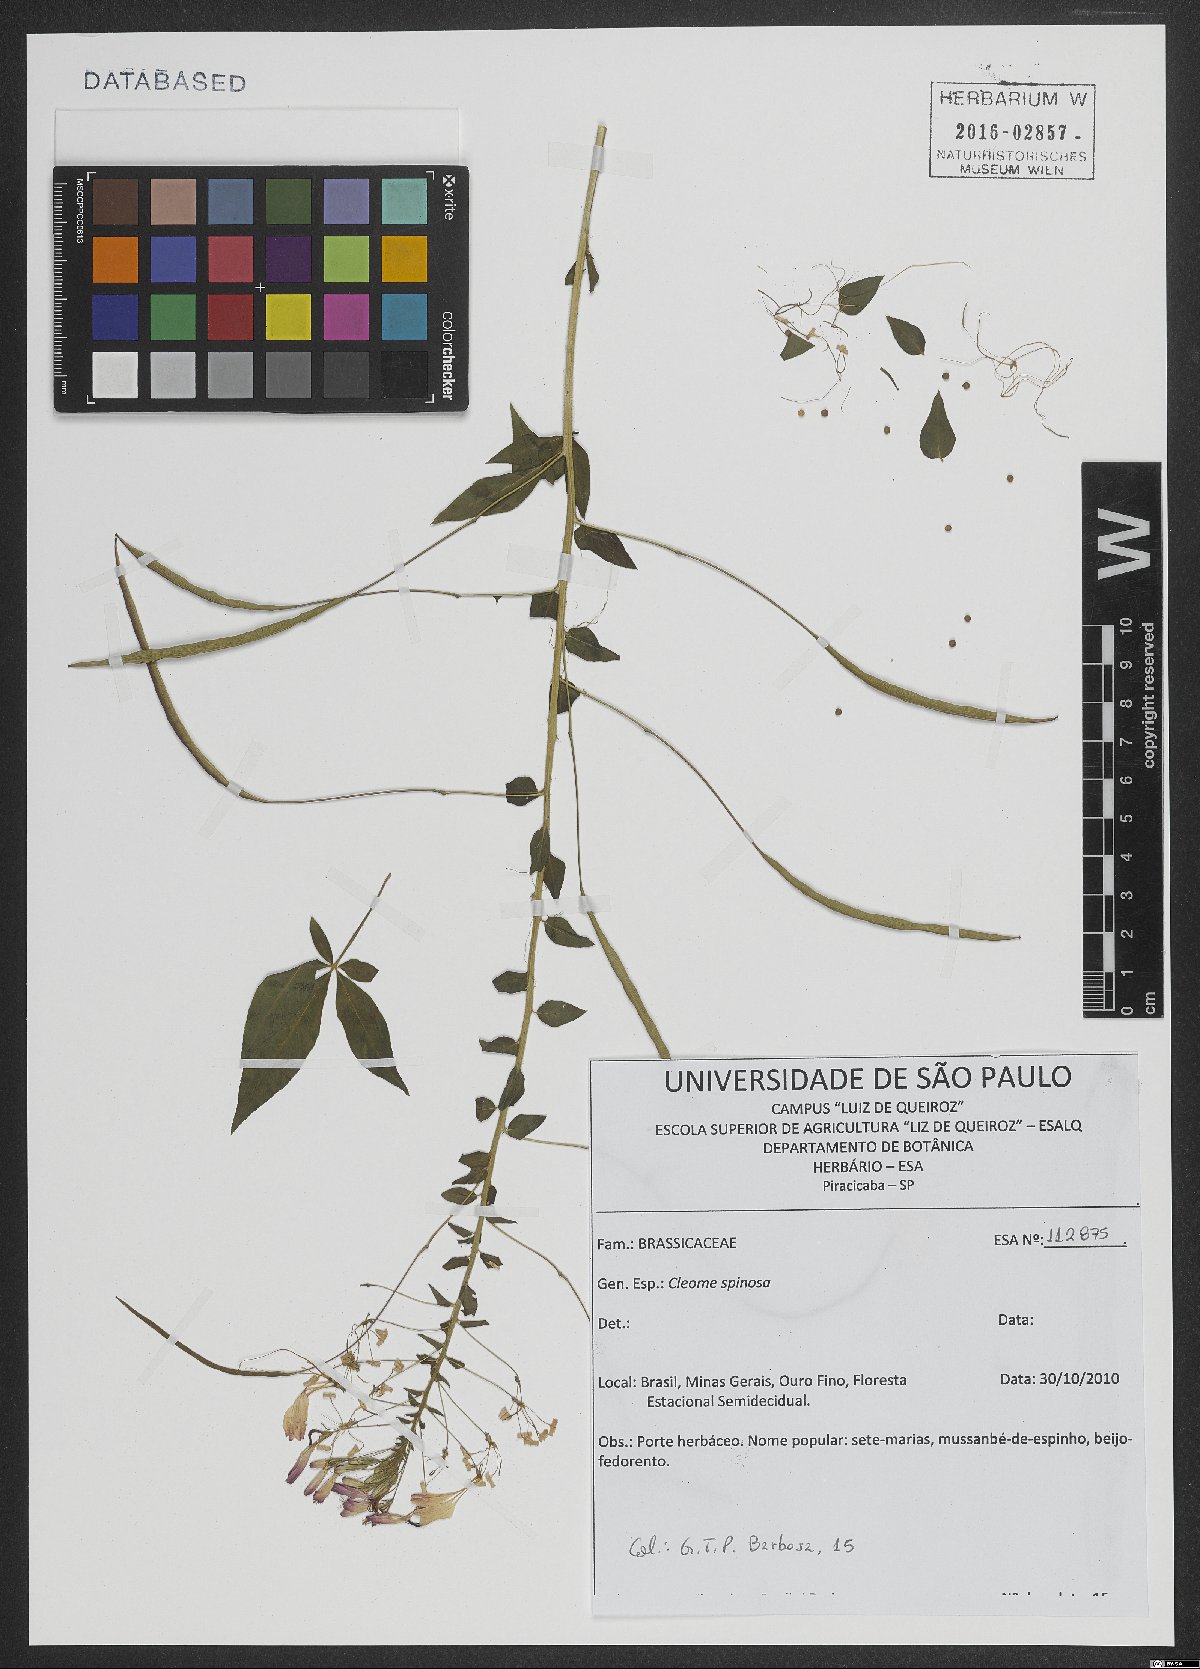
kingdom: Plantae
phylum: Tracheophyta
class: Magnoliopsida
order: Brassicales
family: Cleomaceae
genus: Tarenaya
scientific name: Tarenaya spinosa
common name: Spiny spiderflower
